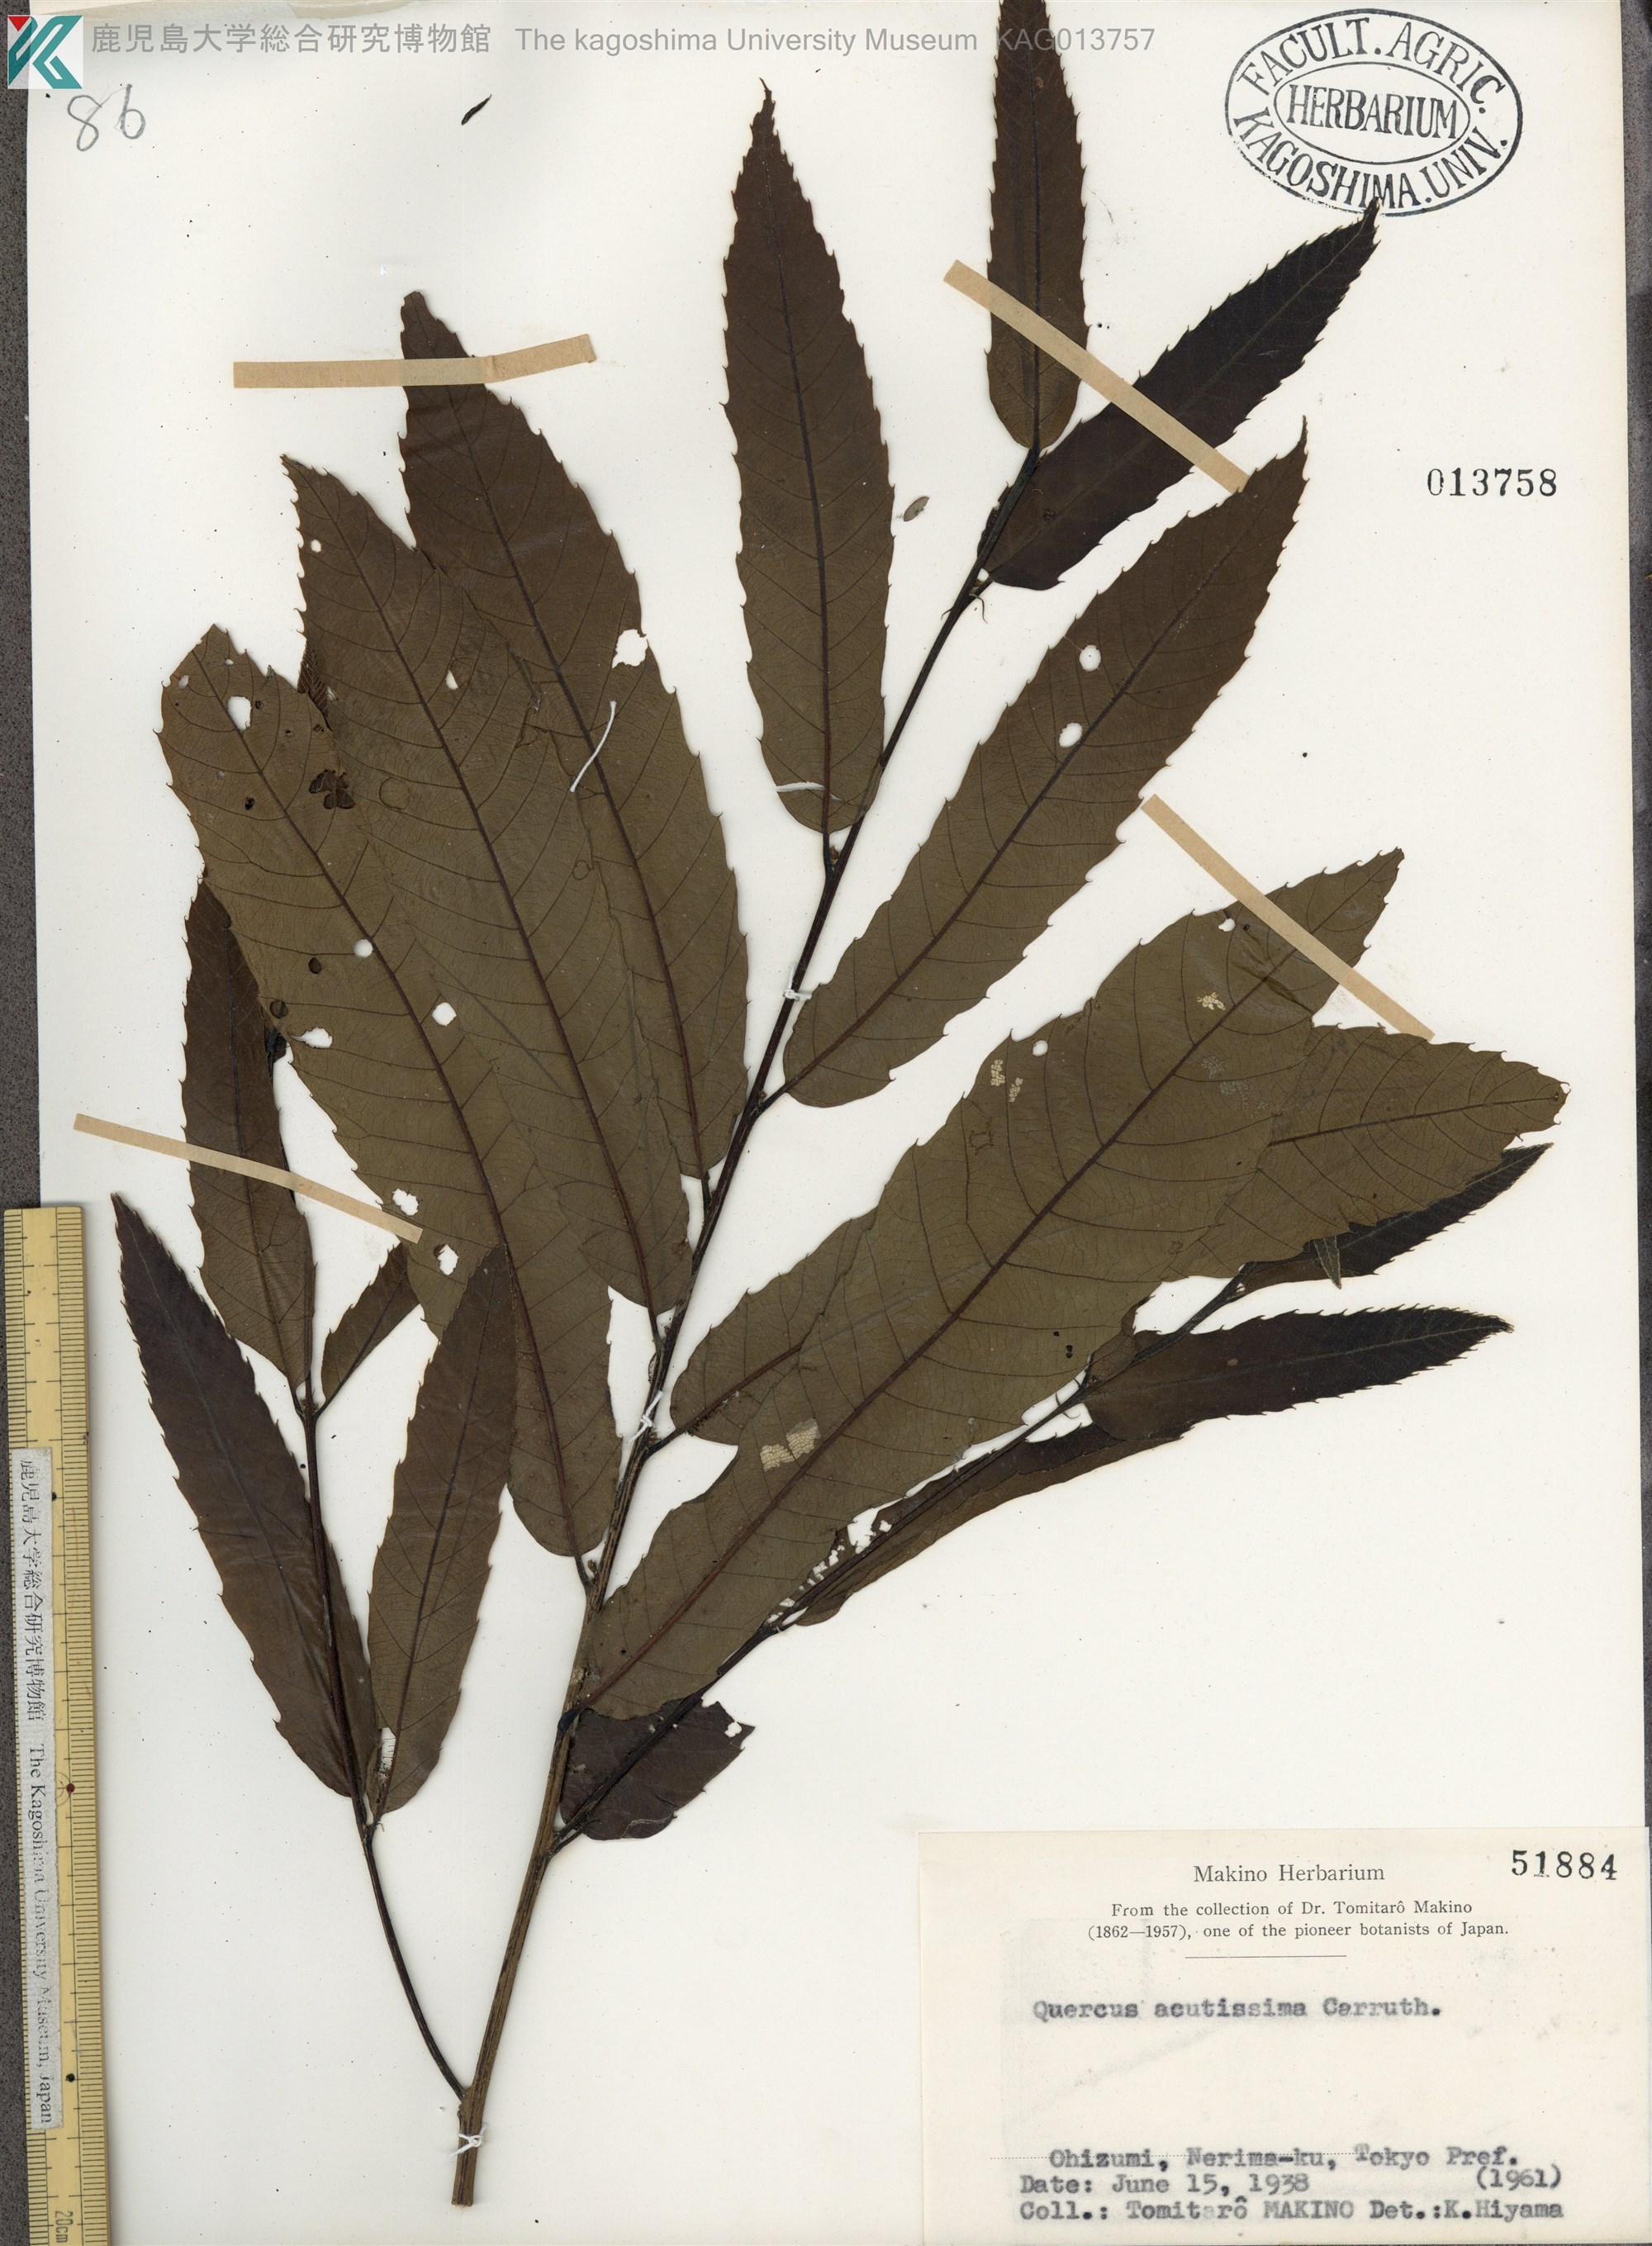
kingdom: Plantae
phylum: Tracheophyta
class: Magnoliopsida
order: Fagales
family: Fagaceae
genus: Quercus
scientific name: Quercus acutissima
